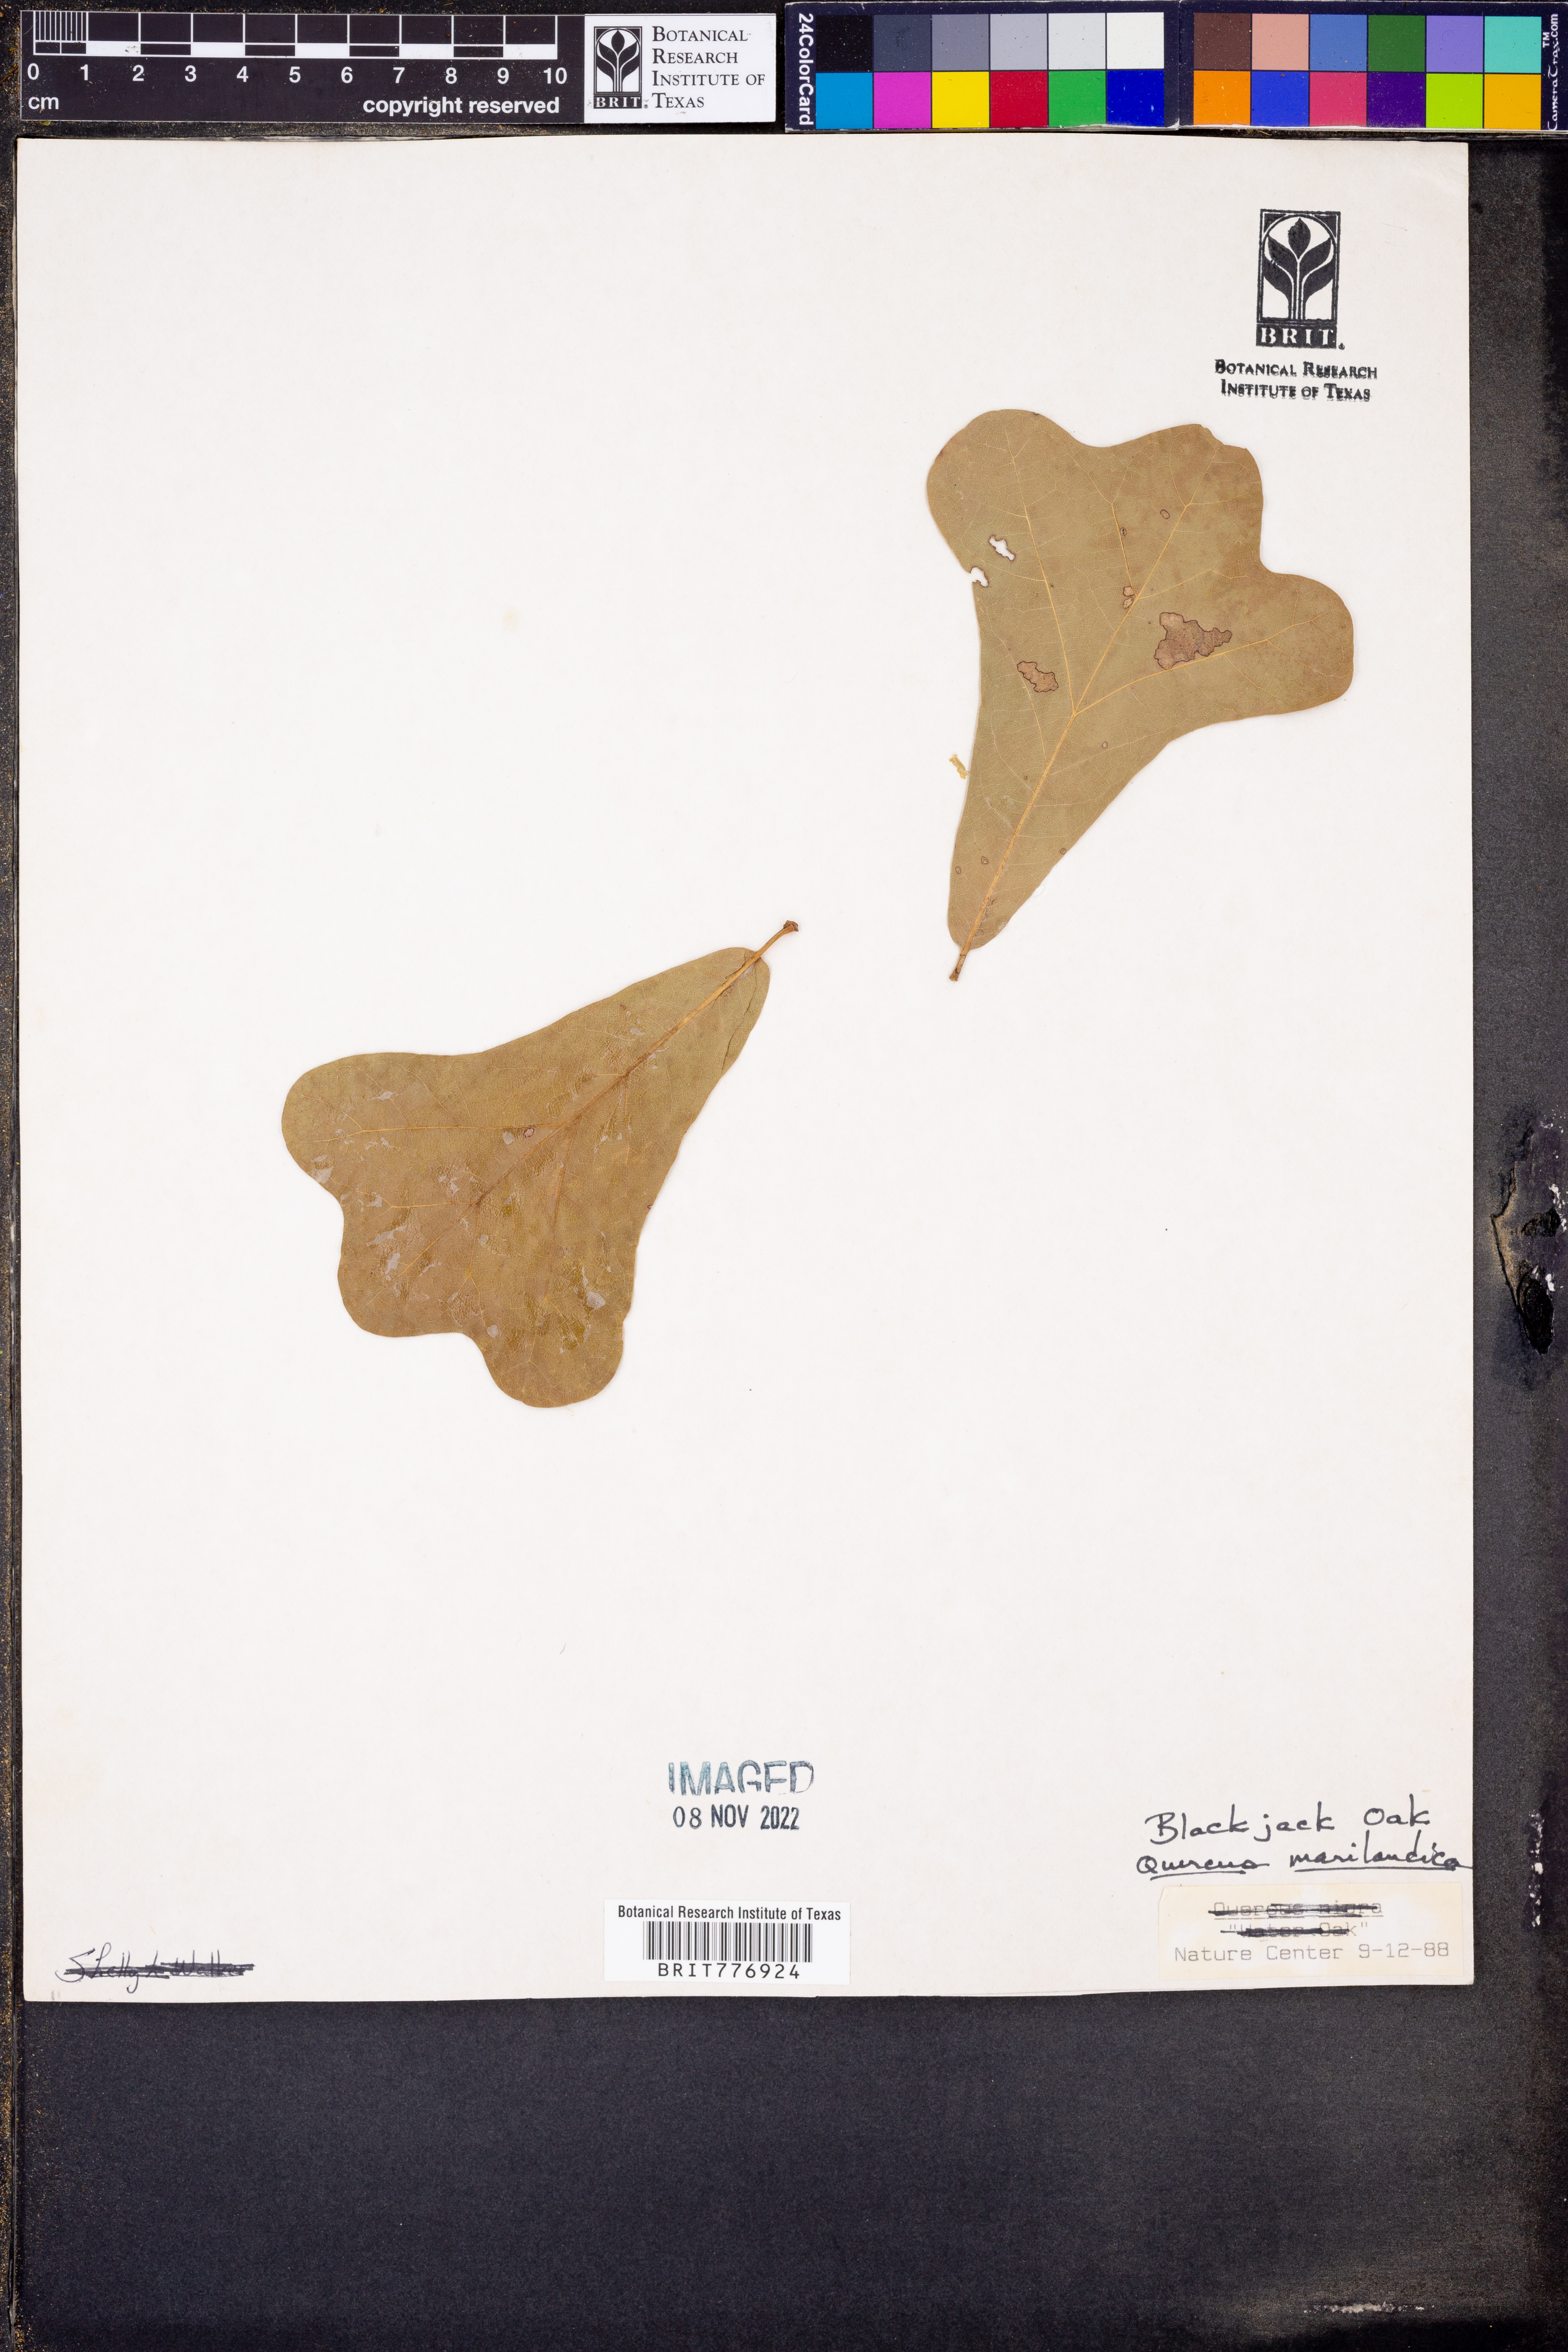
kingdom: Plantae
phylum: Tracheophyta
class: Magnoliopsida
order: Fagales
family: Fagaceae
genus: Quercus
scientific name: Quercus marilandica
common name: Blackjack oak
